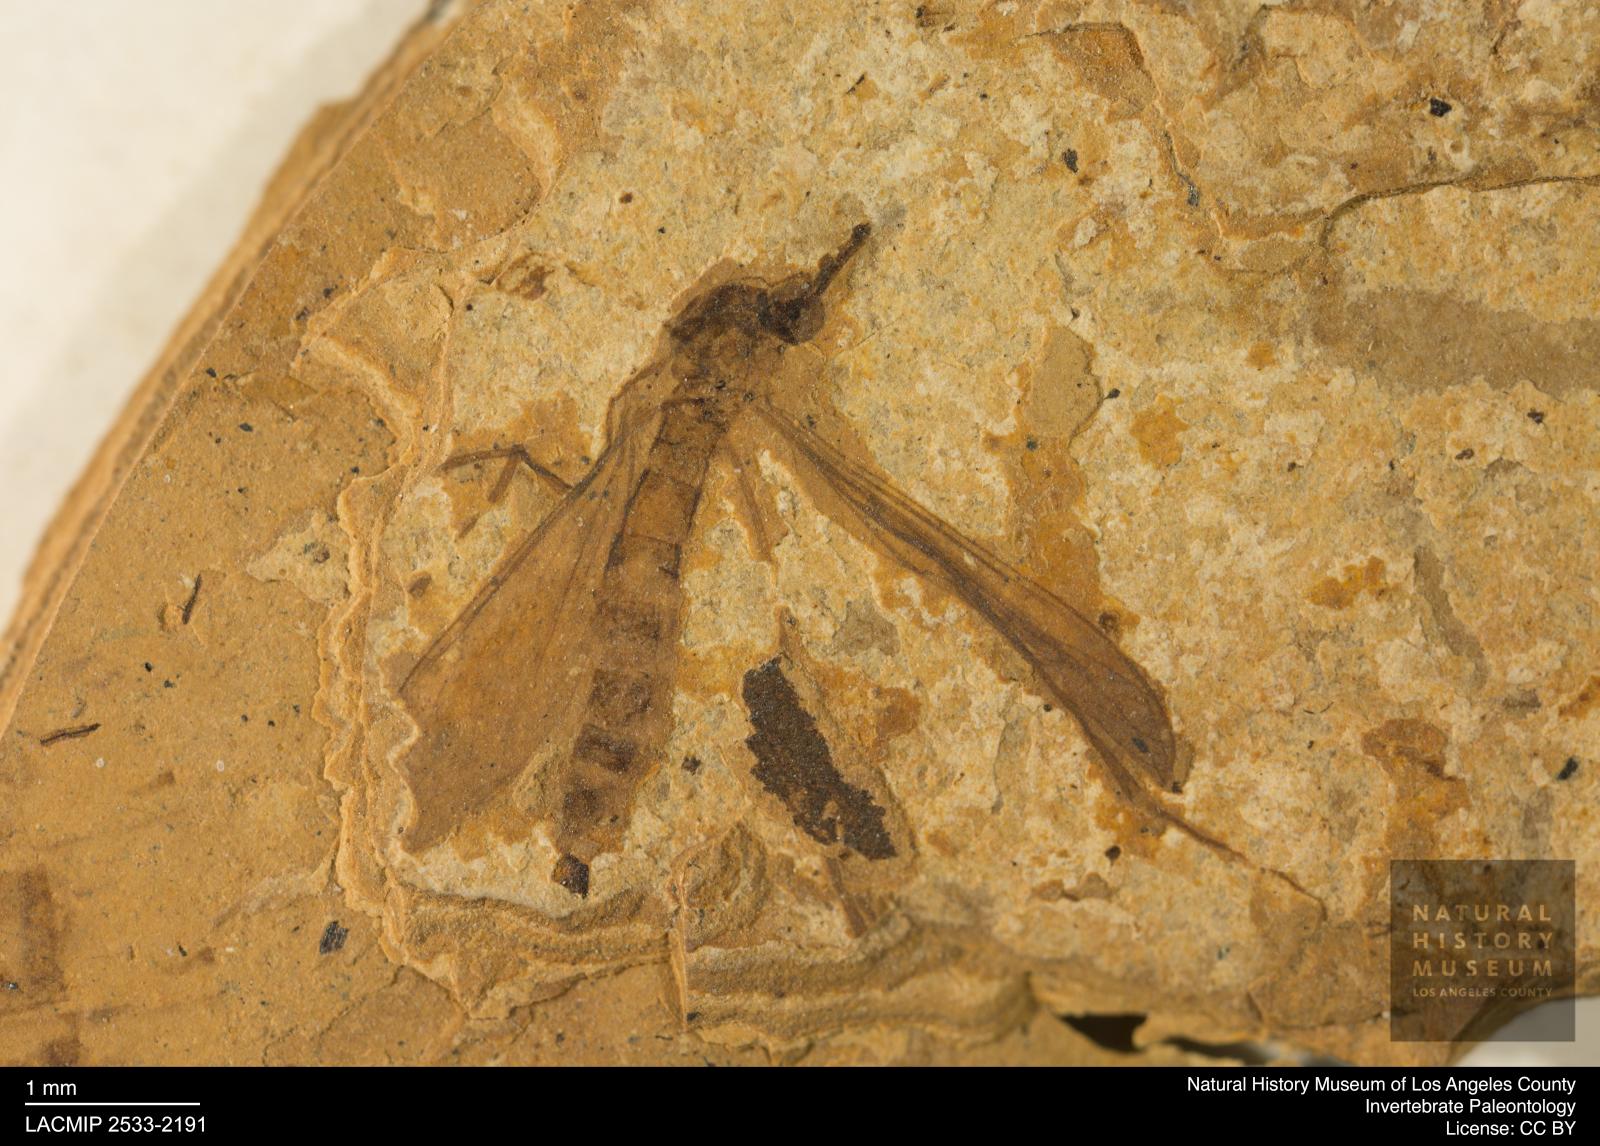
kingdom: Animalia
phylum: Arthropoda
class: Insecta
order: Diptera
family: Limoniidae
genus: Helius
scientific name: Helius
